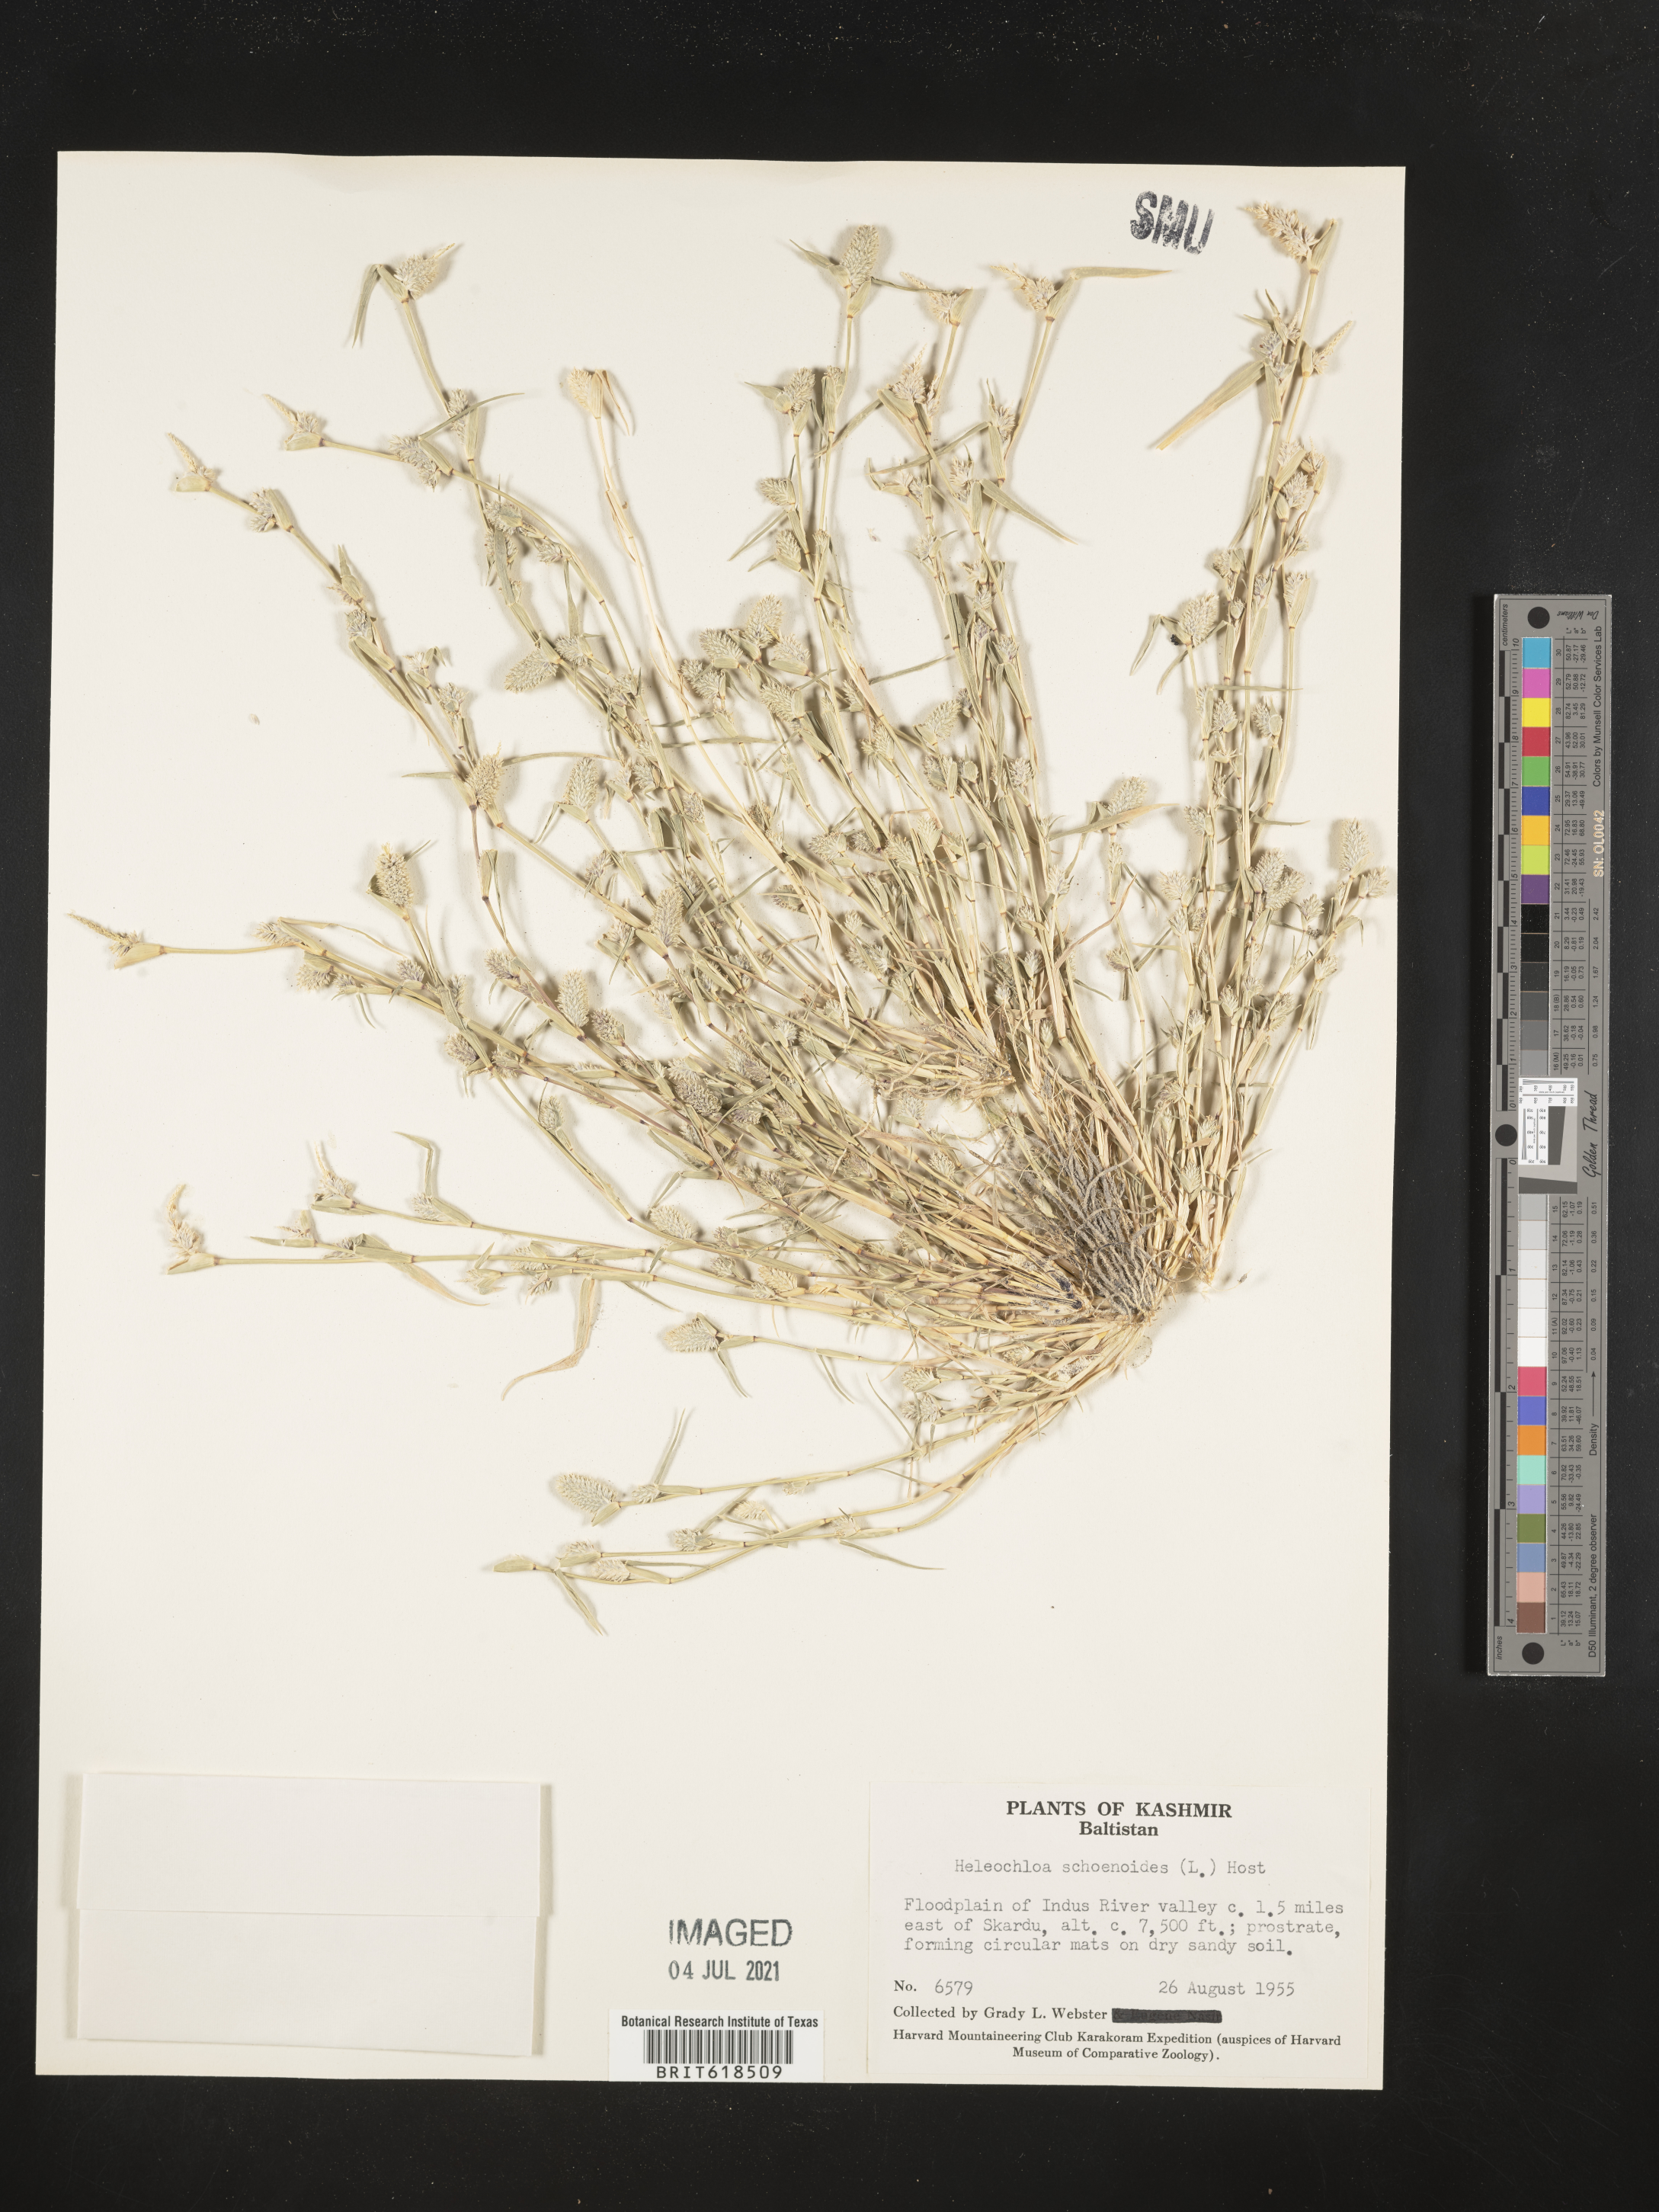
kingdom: Plantae
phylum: Tracheophyta
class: Liliopsida
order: Poales
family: Poaceae
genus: Sporobolus
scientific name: Sporobolus schoenoides
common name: Rush-like timothy
